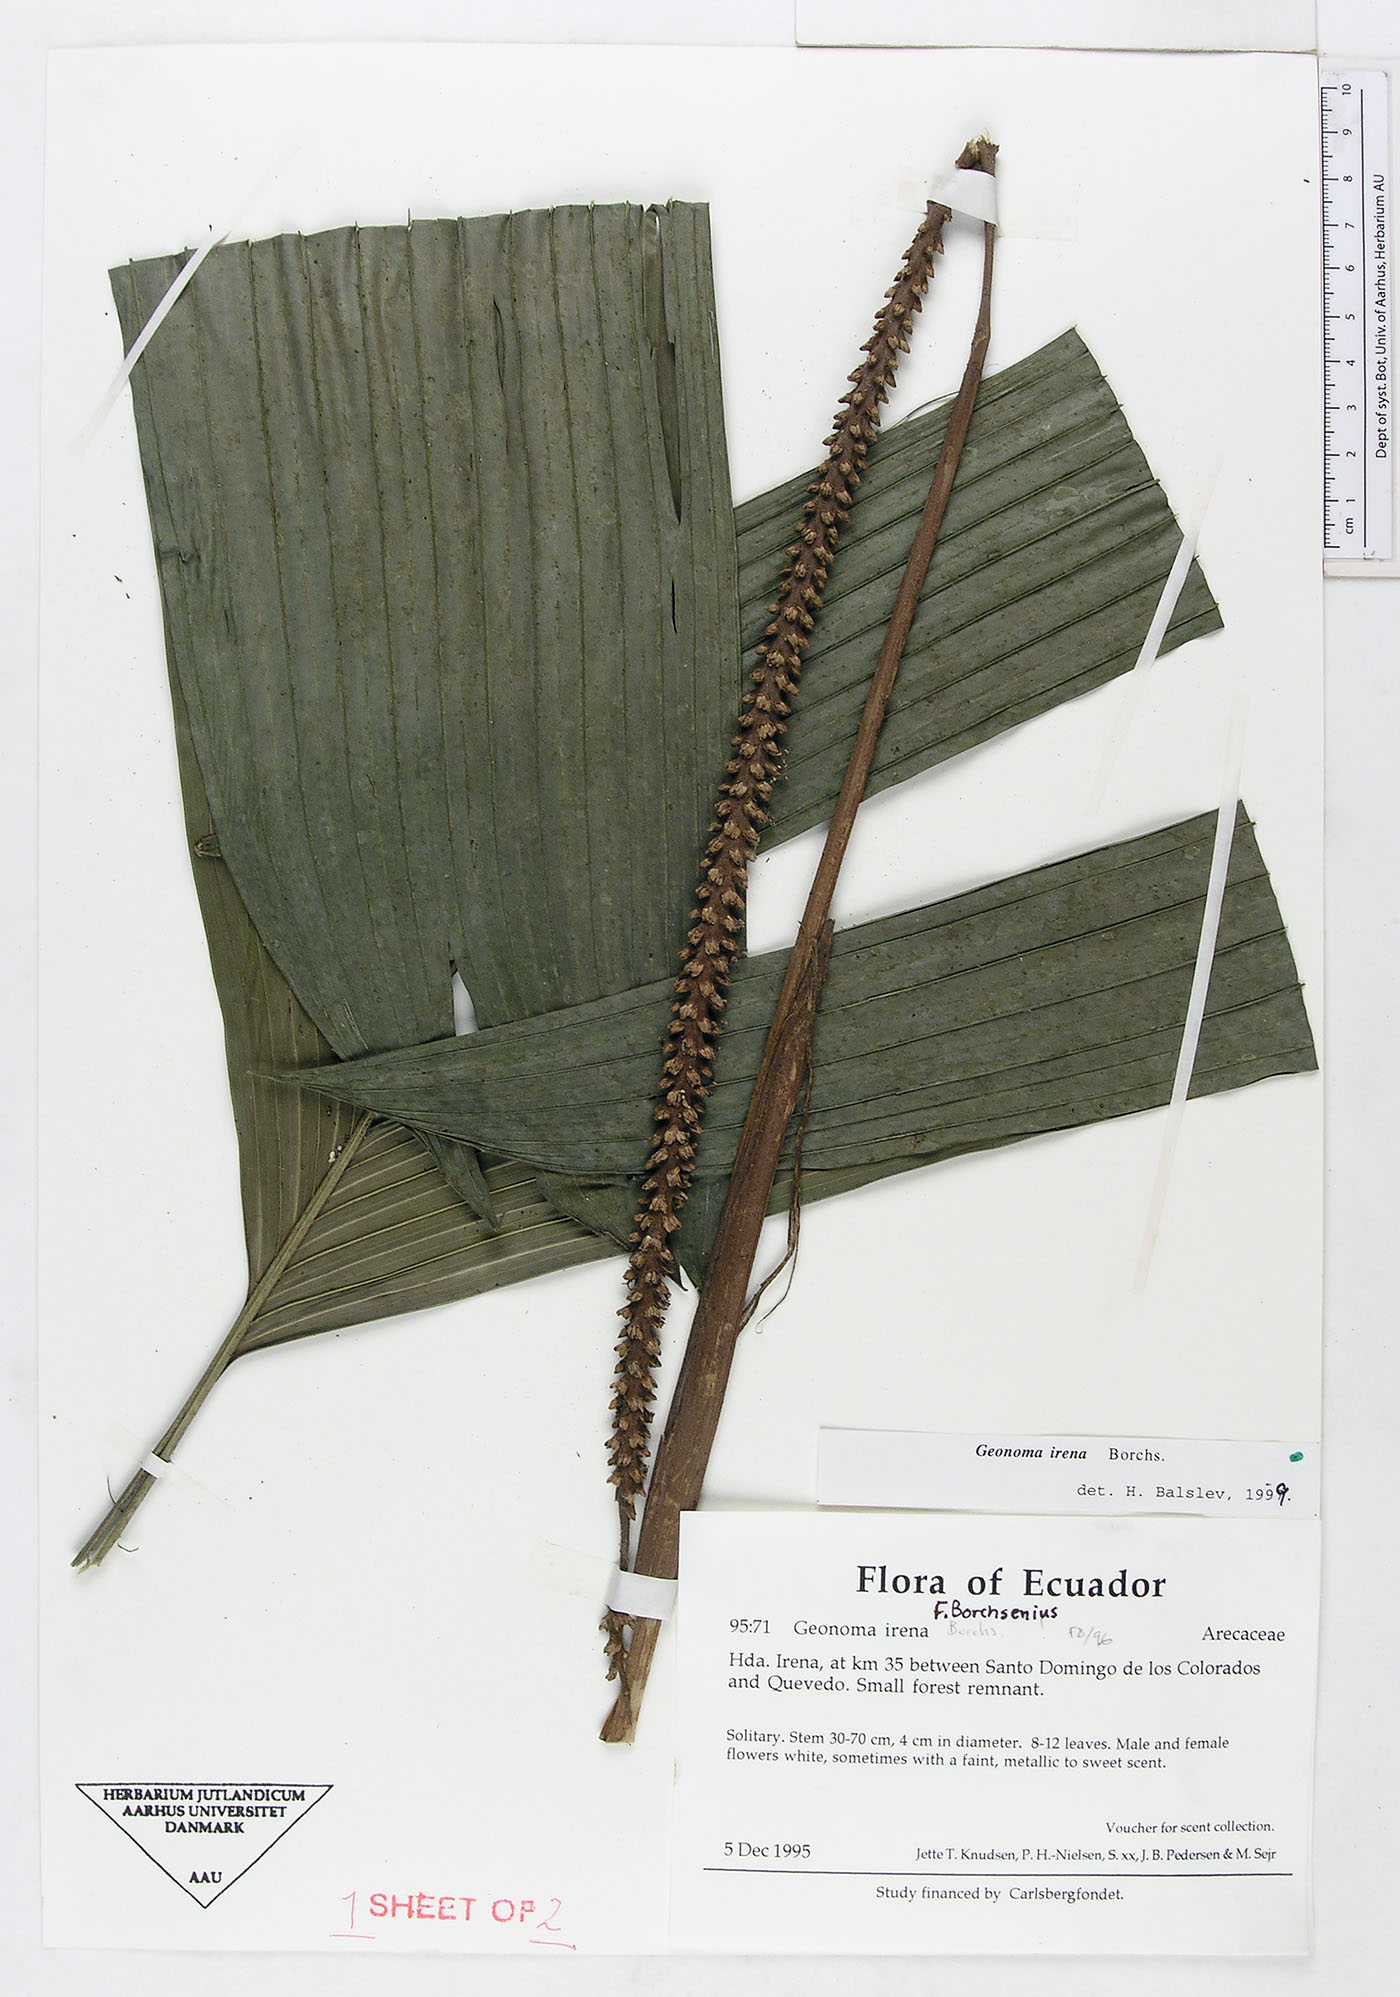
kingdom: Plantae
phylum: Tracheophyta
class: Liliopsida
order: Arecales
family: Arecaceae
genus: Geonoma
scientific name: Geonoma cuneata
